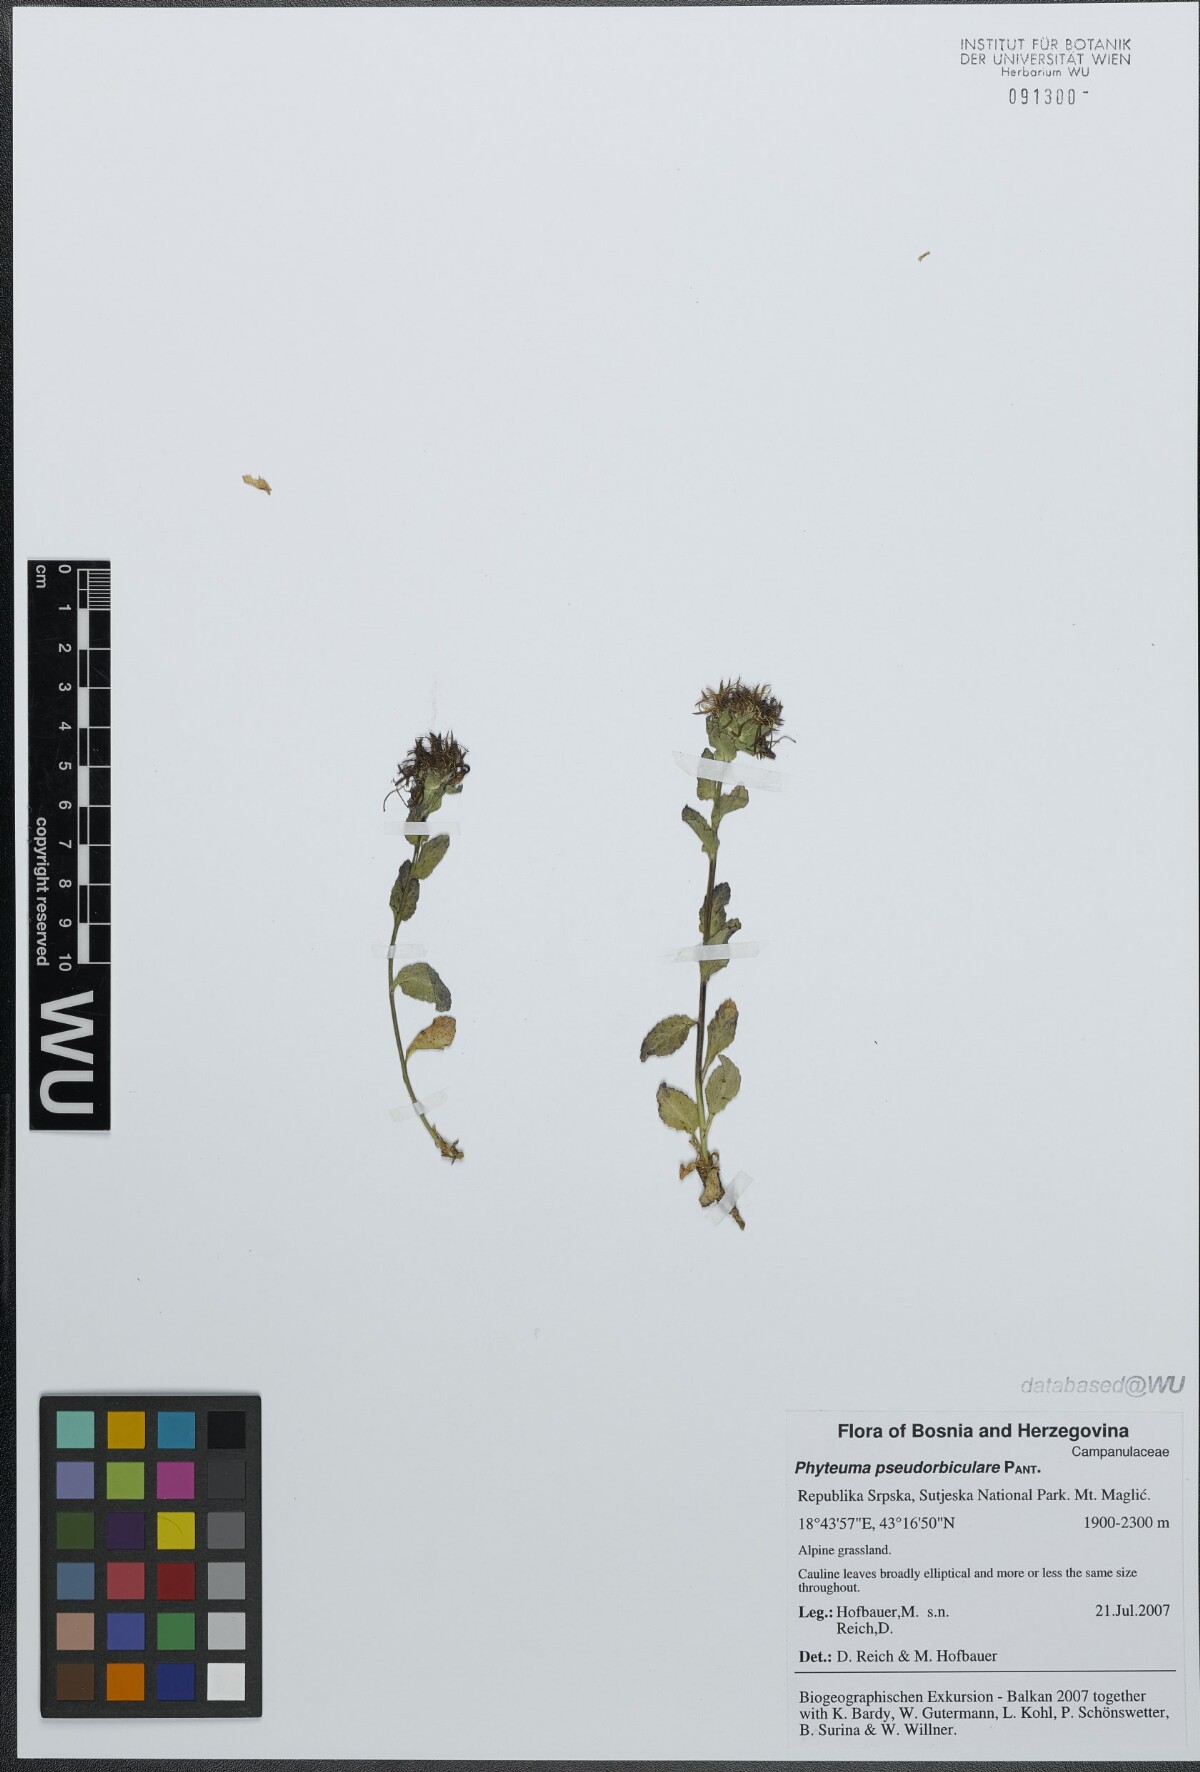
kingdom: Plantae
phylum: Tracheophyta
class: Magnoliopsida
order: Asterales
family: Campanulaceae
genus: Phyteuma
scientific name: Phyteuma orbiculare
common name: Round-headed rampion
